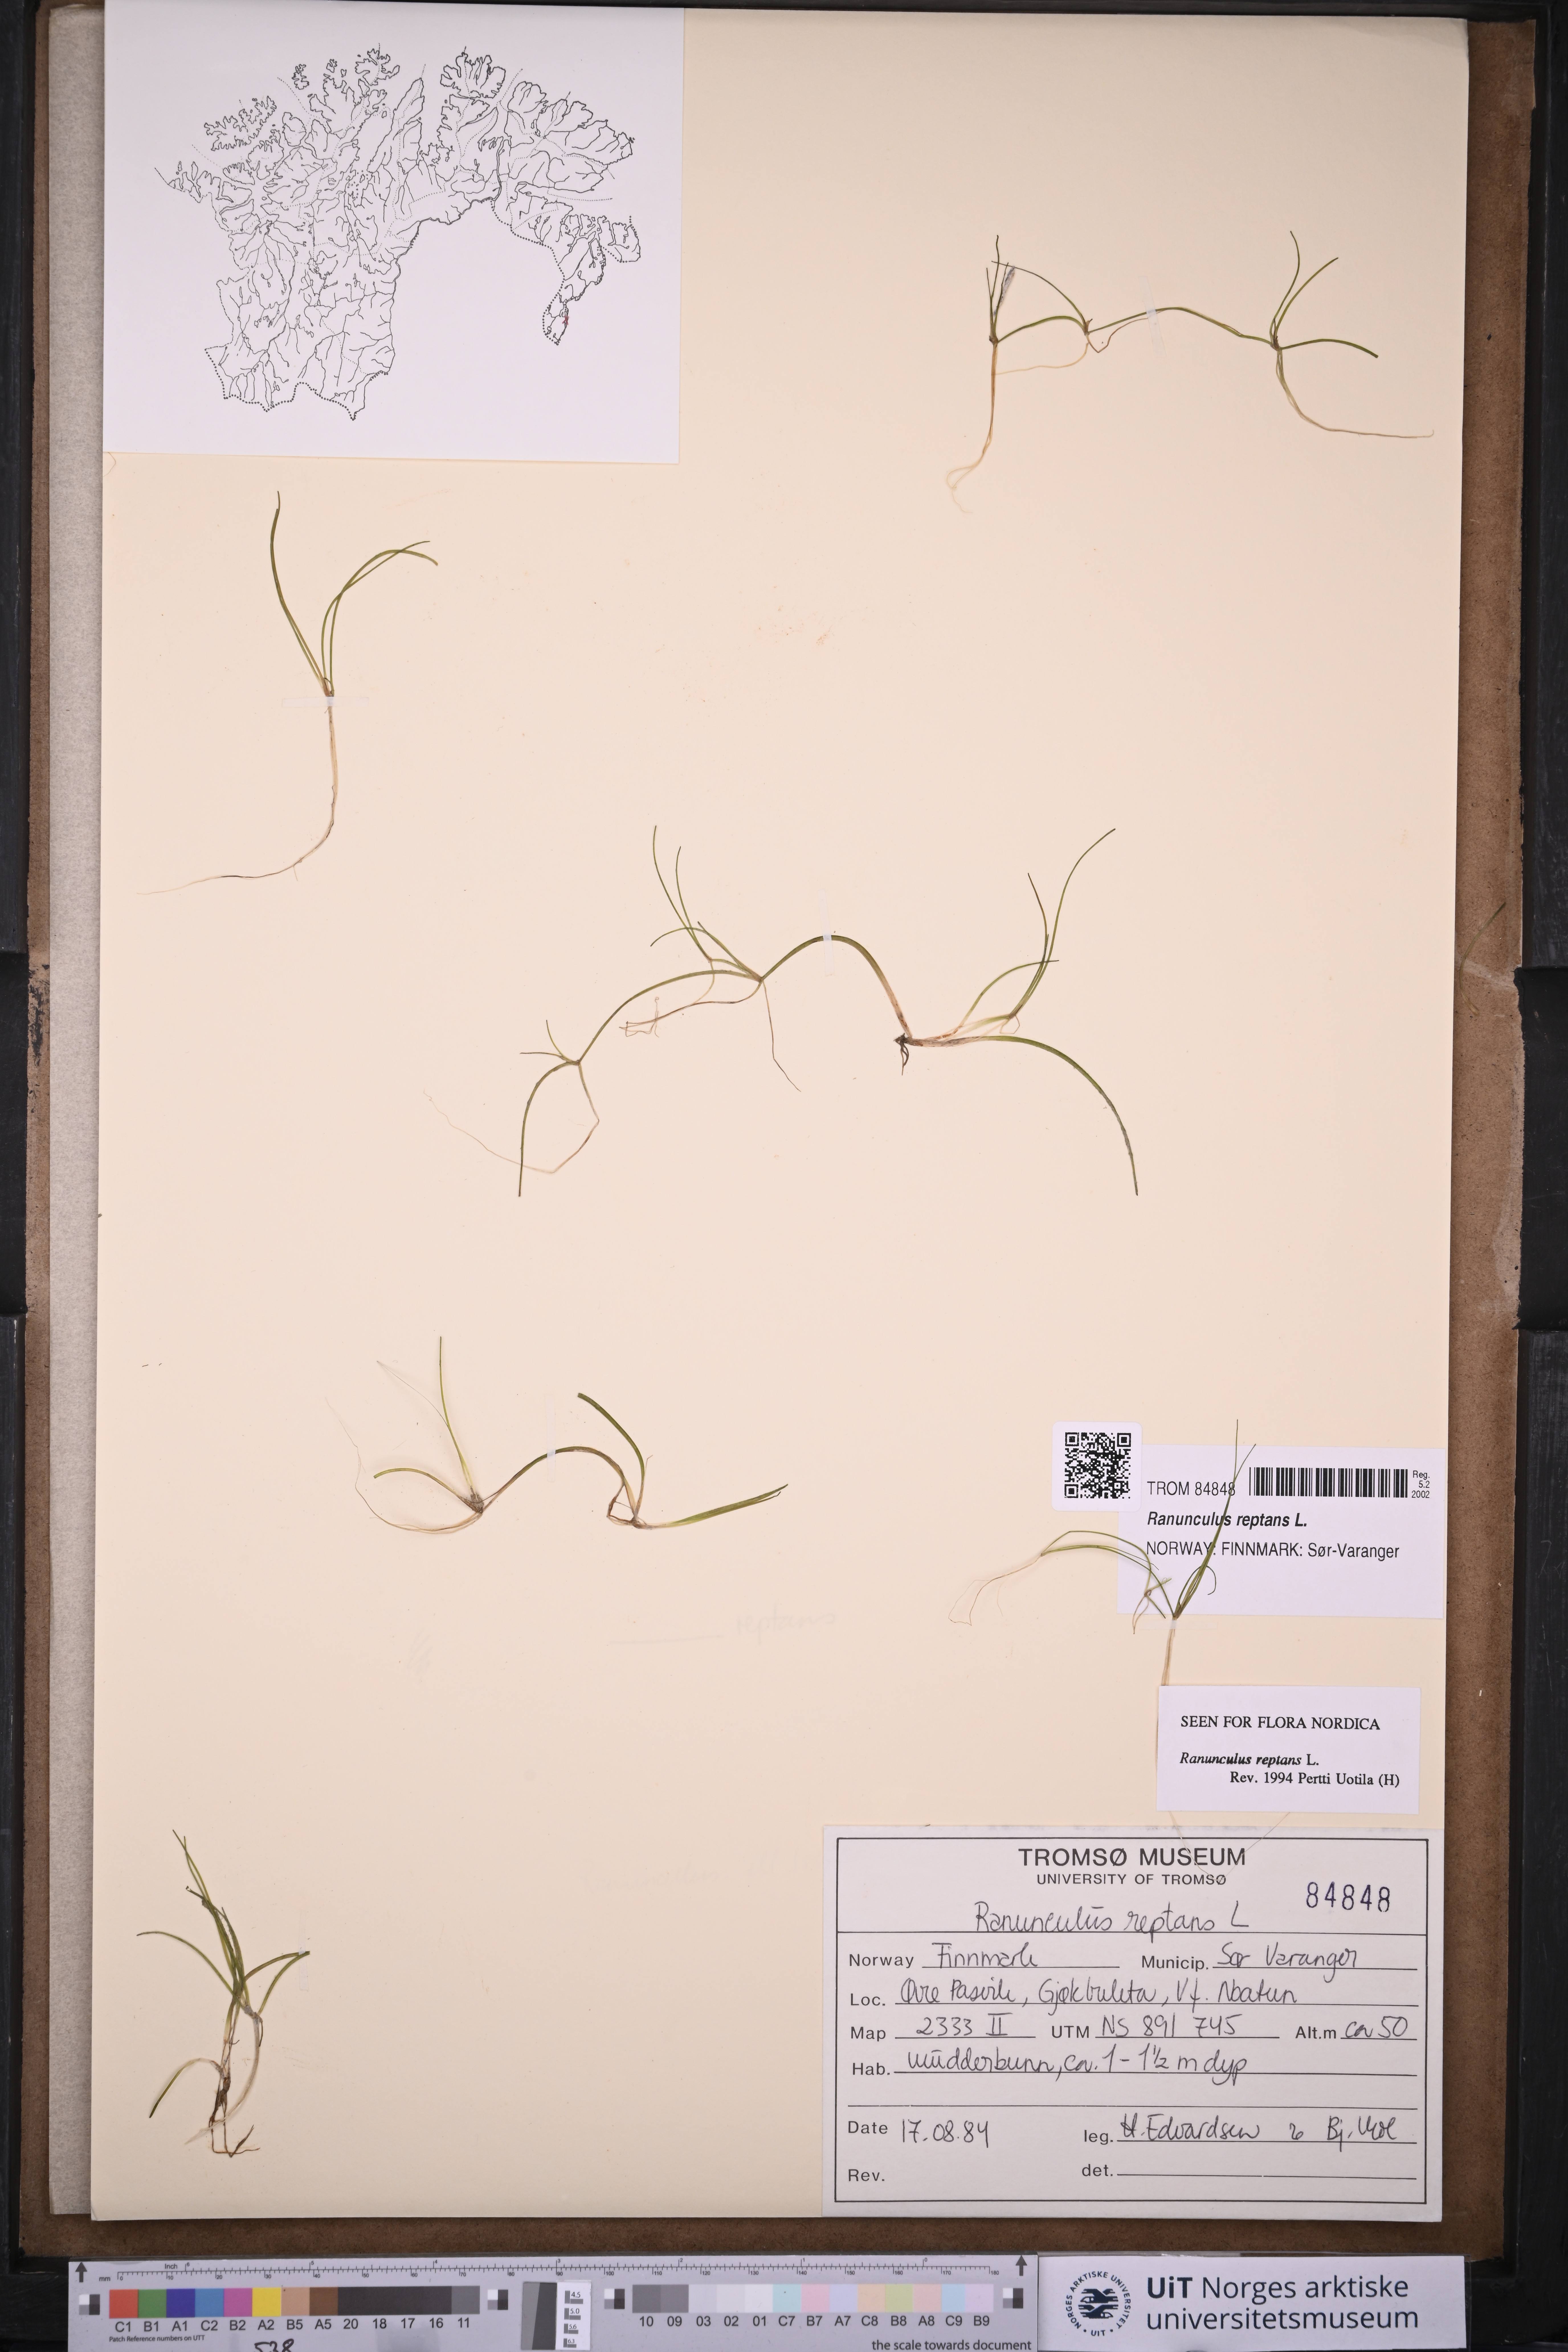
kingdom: Plantae
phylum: Tracheophyta
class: Magnoliopsida
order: Ranunculales
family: Ranunculaceae
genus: Ranunculus
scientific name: Ranunculus reptans
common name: Creeping spearwort
